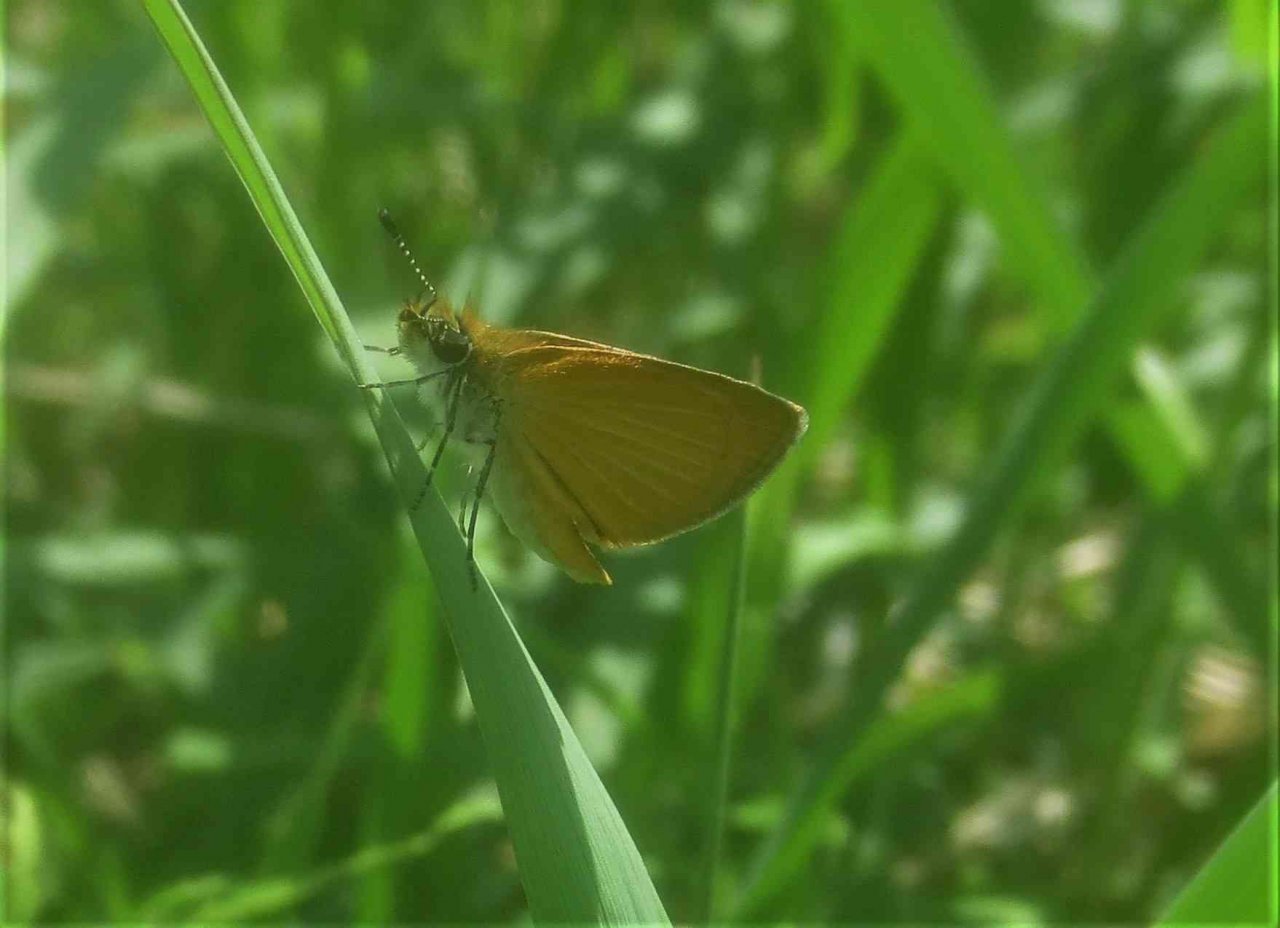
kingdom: Animalia
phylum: Arthropoda
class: Insecta
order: Lepidoptera
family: Hesperiidae
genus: Ancyloxypha
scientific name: Ancyloxypha numitor
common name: Least Skipper
